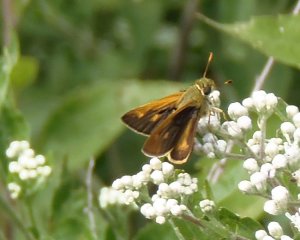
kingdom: Animalia
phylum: Arthropoda
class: Insecta
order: Lepidoptera
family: Hesperiidae
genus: Wallengrenia
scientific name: Wallengrenia otho
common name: Southern Broken-Dash
